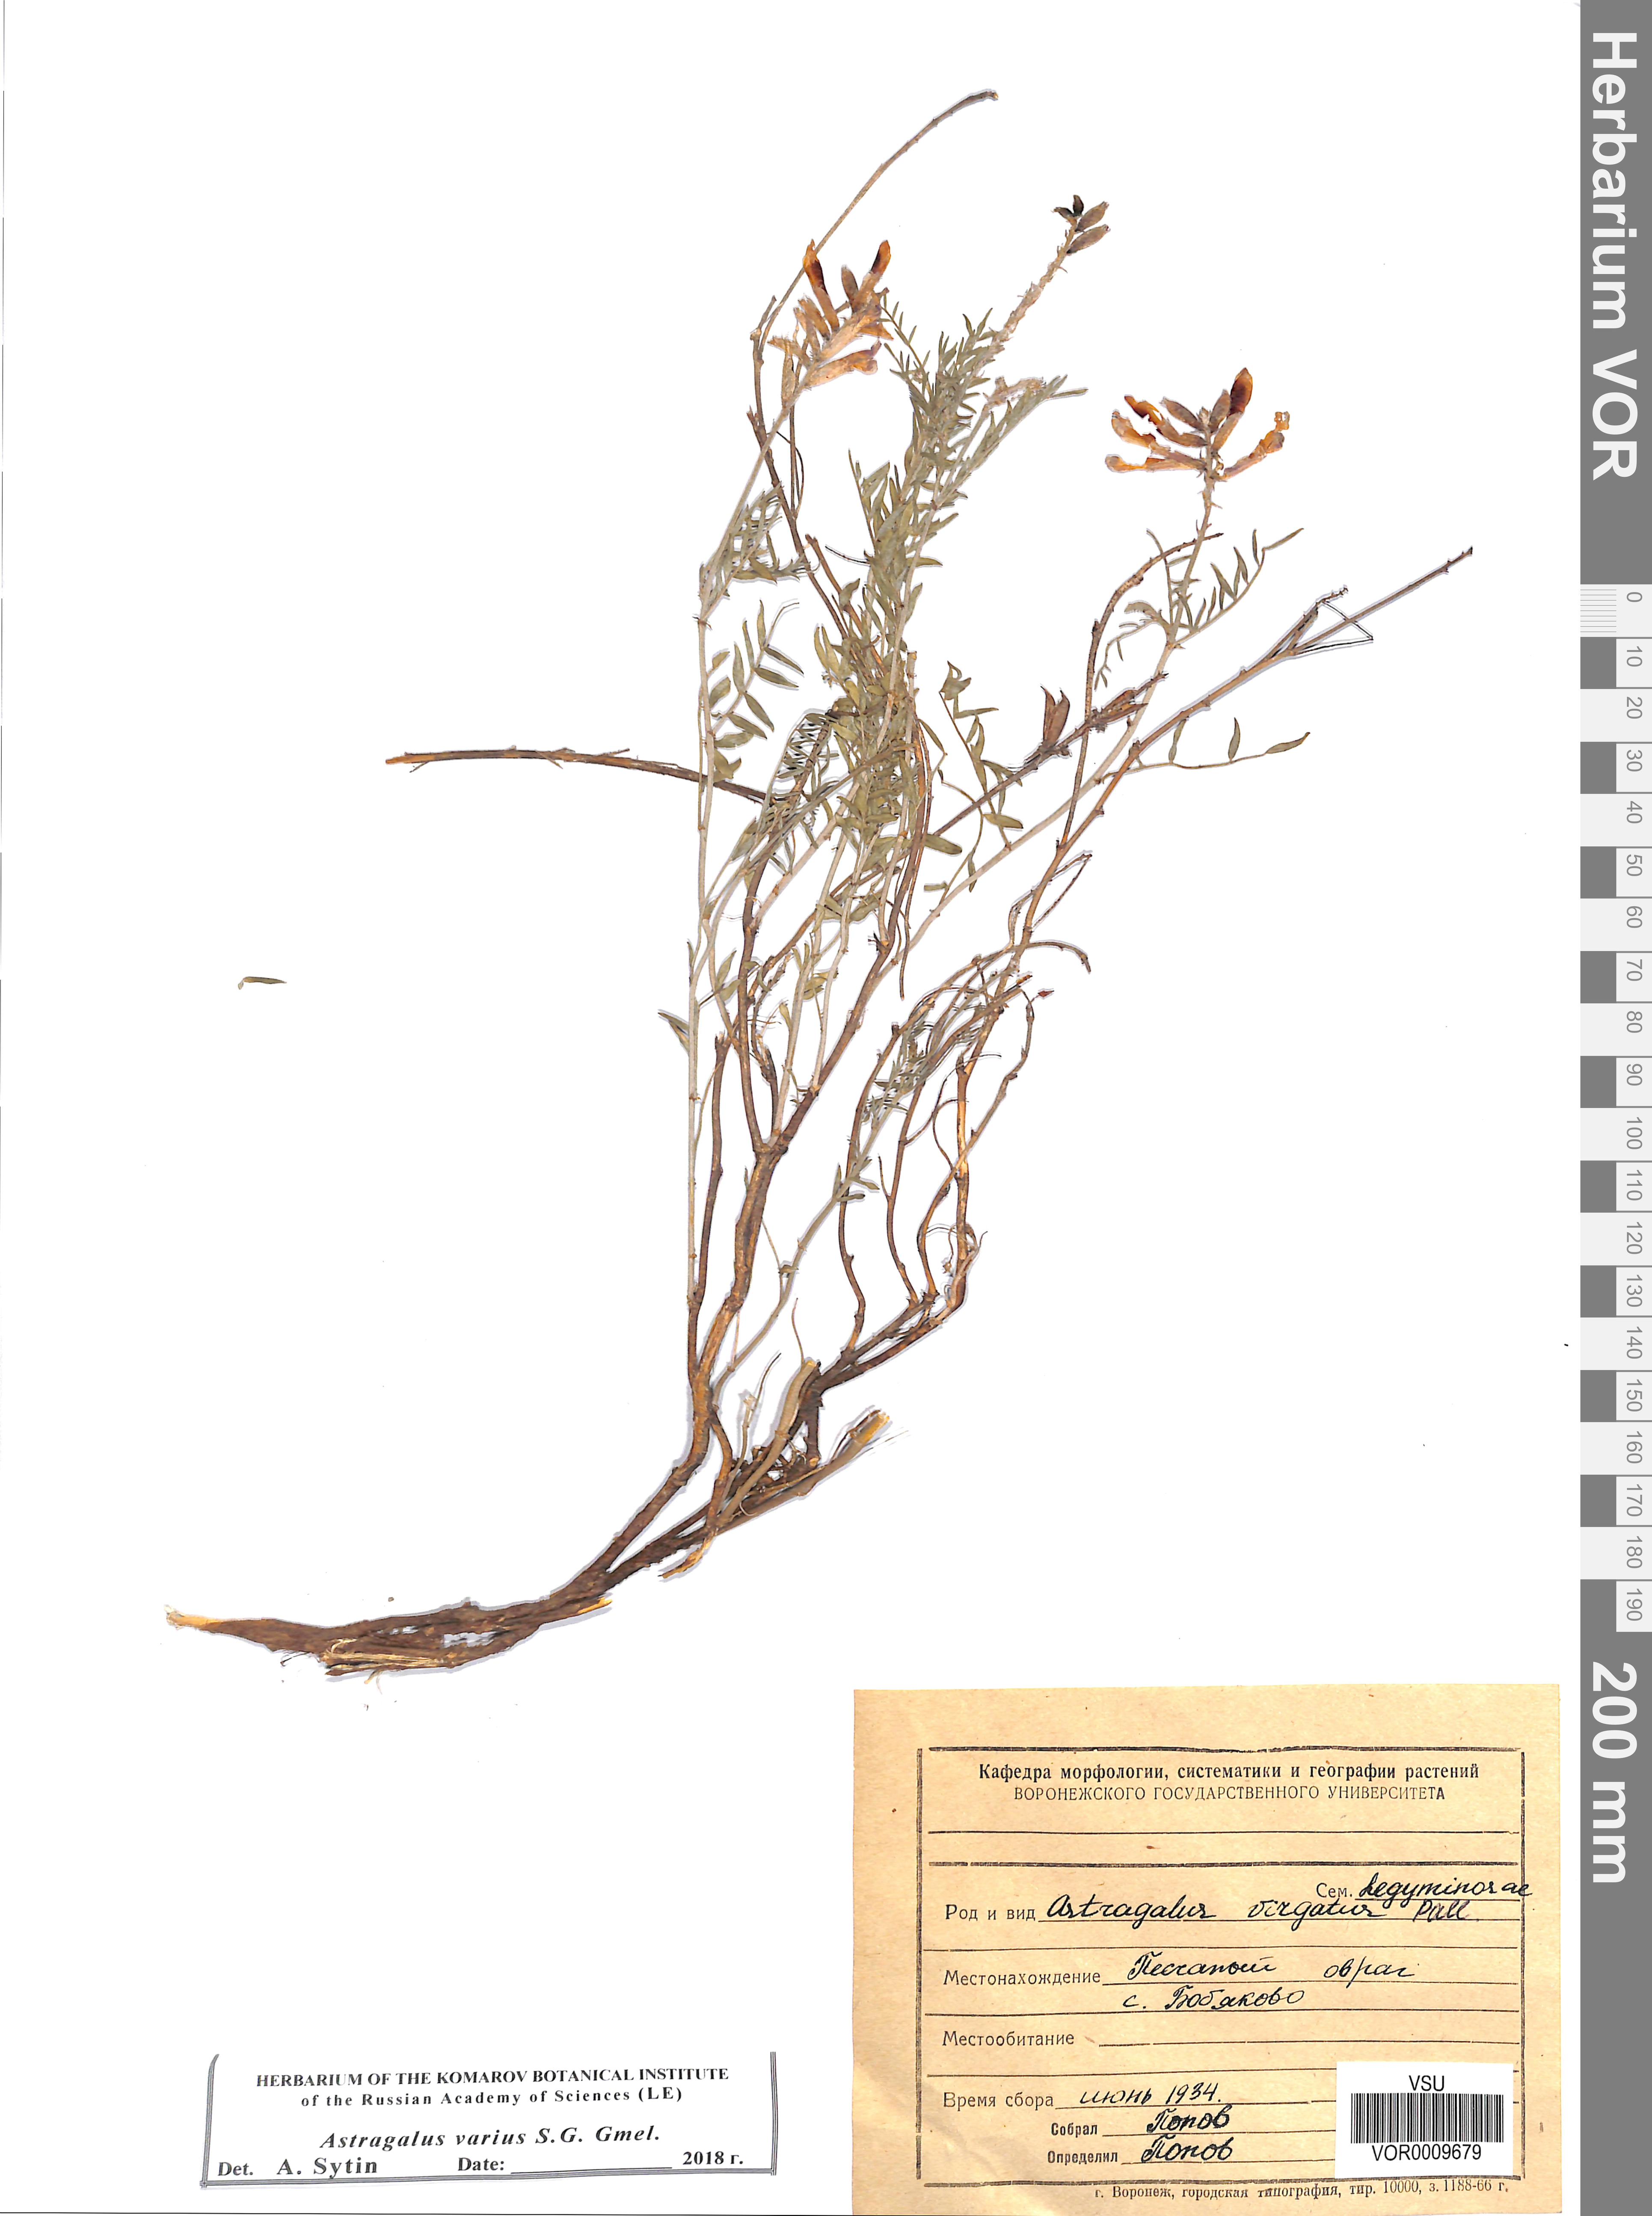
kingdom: Plantae
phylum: Tracheophyta
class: Magnoliopsida
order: Fabales
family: Fabaceae
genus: Astragalus
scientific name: Astragalus varius
